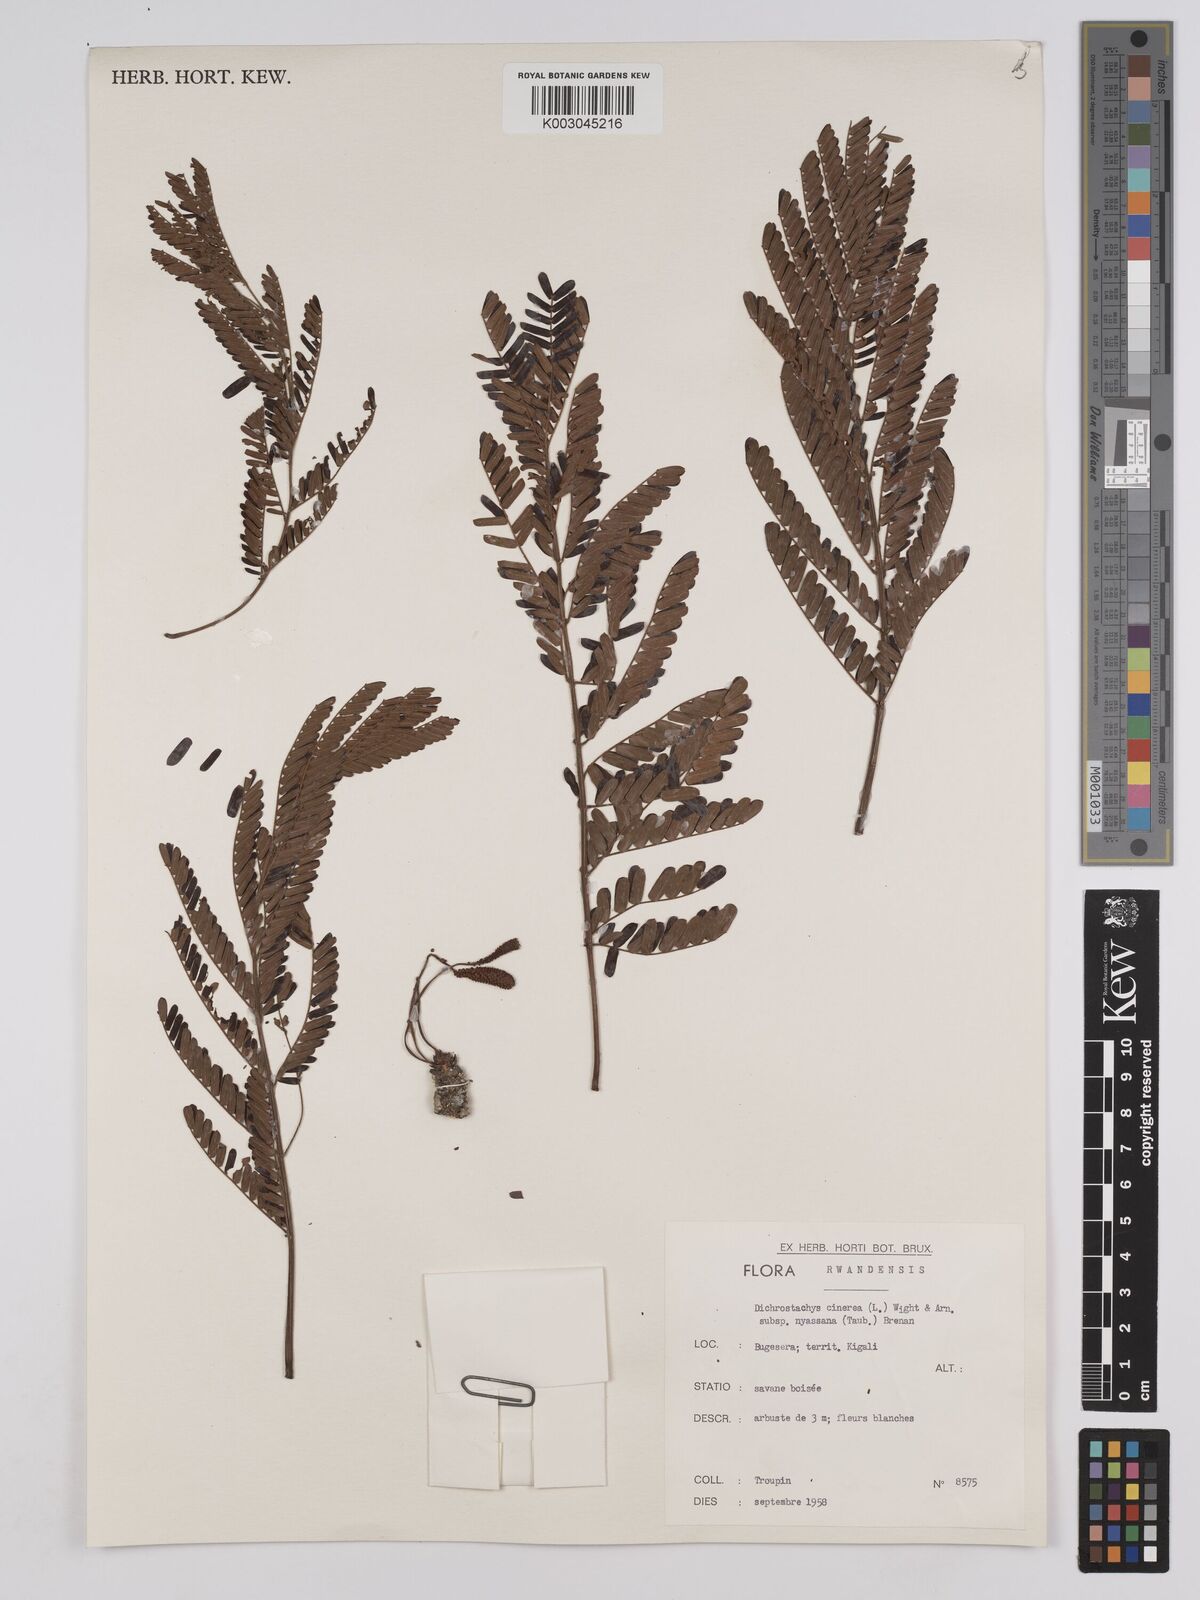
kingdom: Plantae
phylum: Tracheophyta
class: Magnoliopsida
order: Fabales
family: Fabaceae
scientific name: Fabaceae
